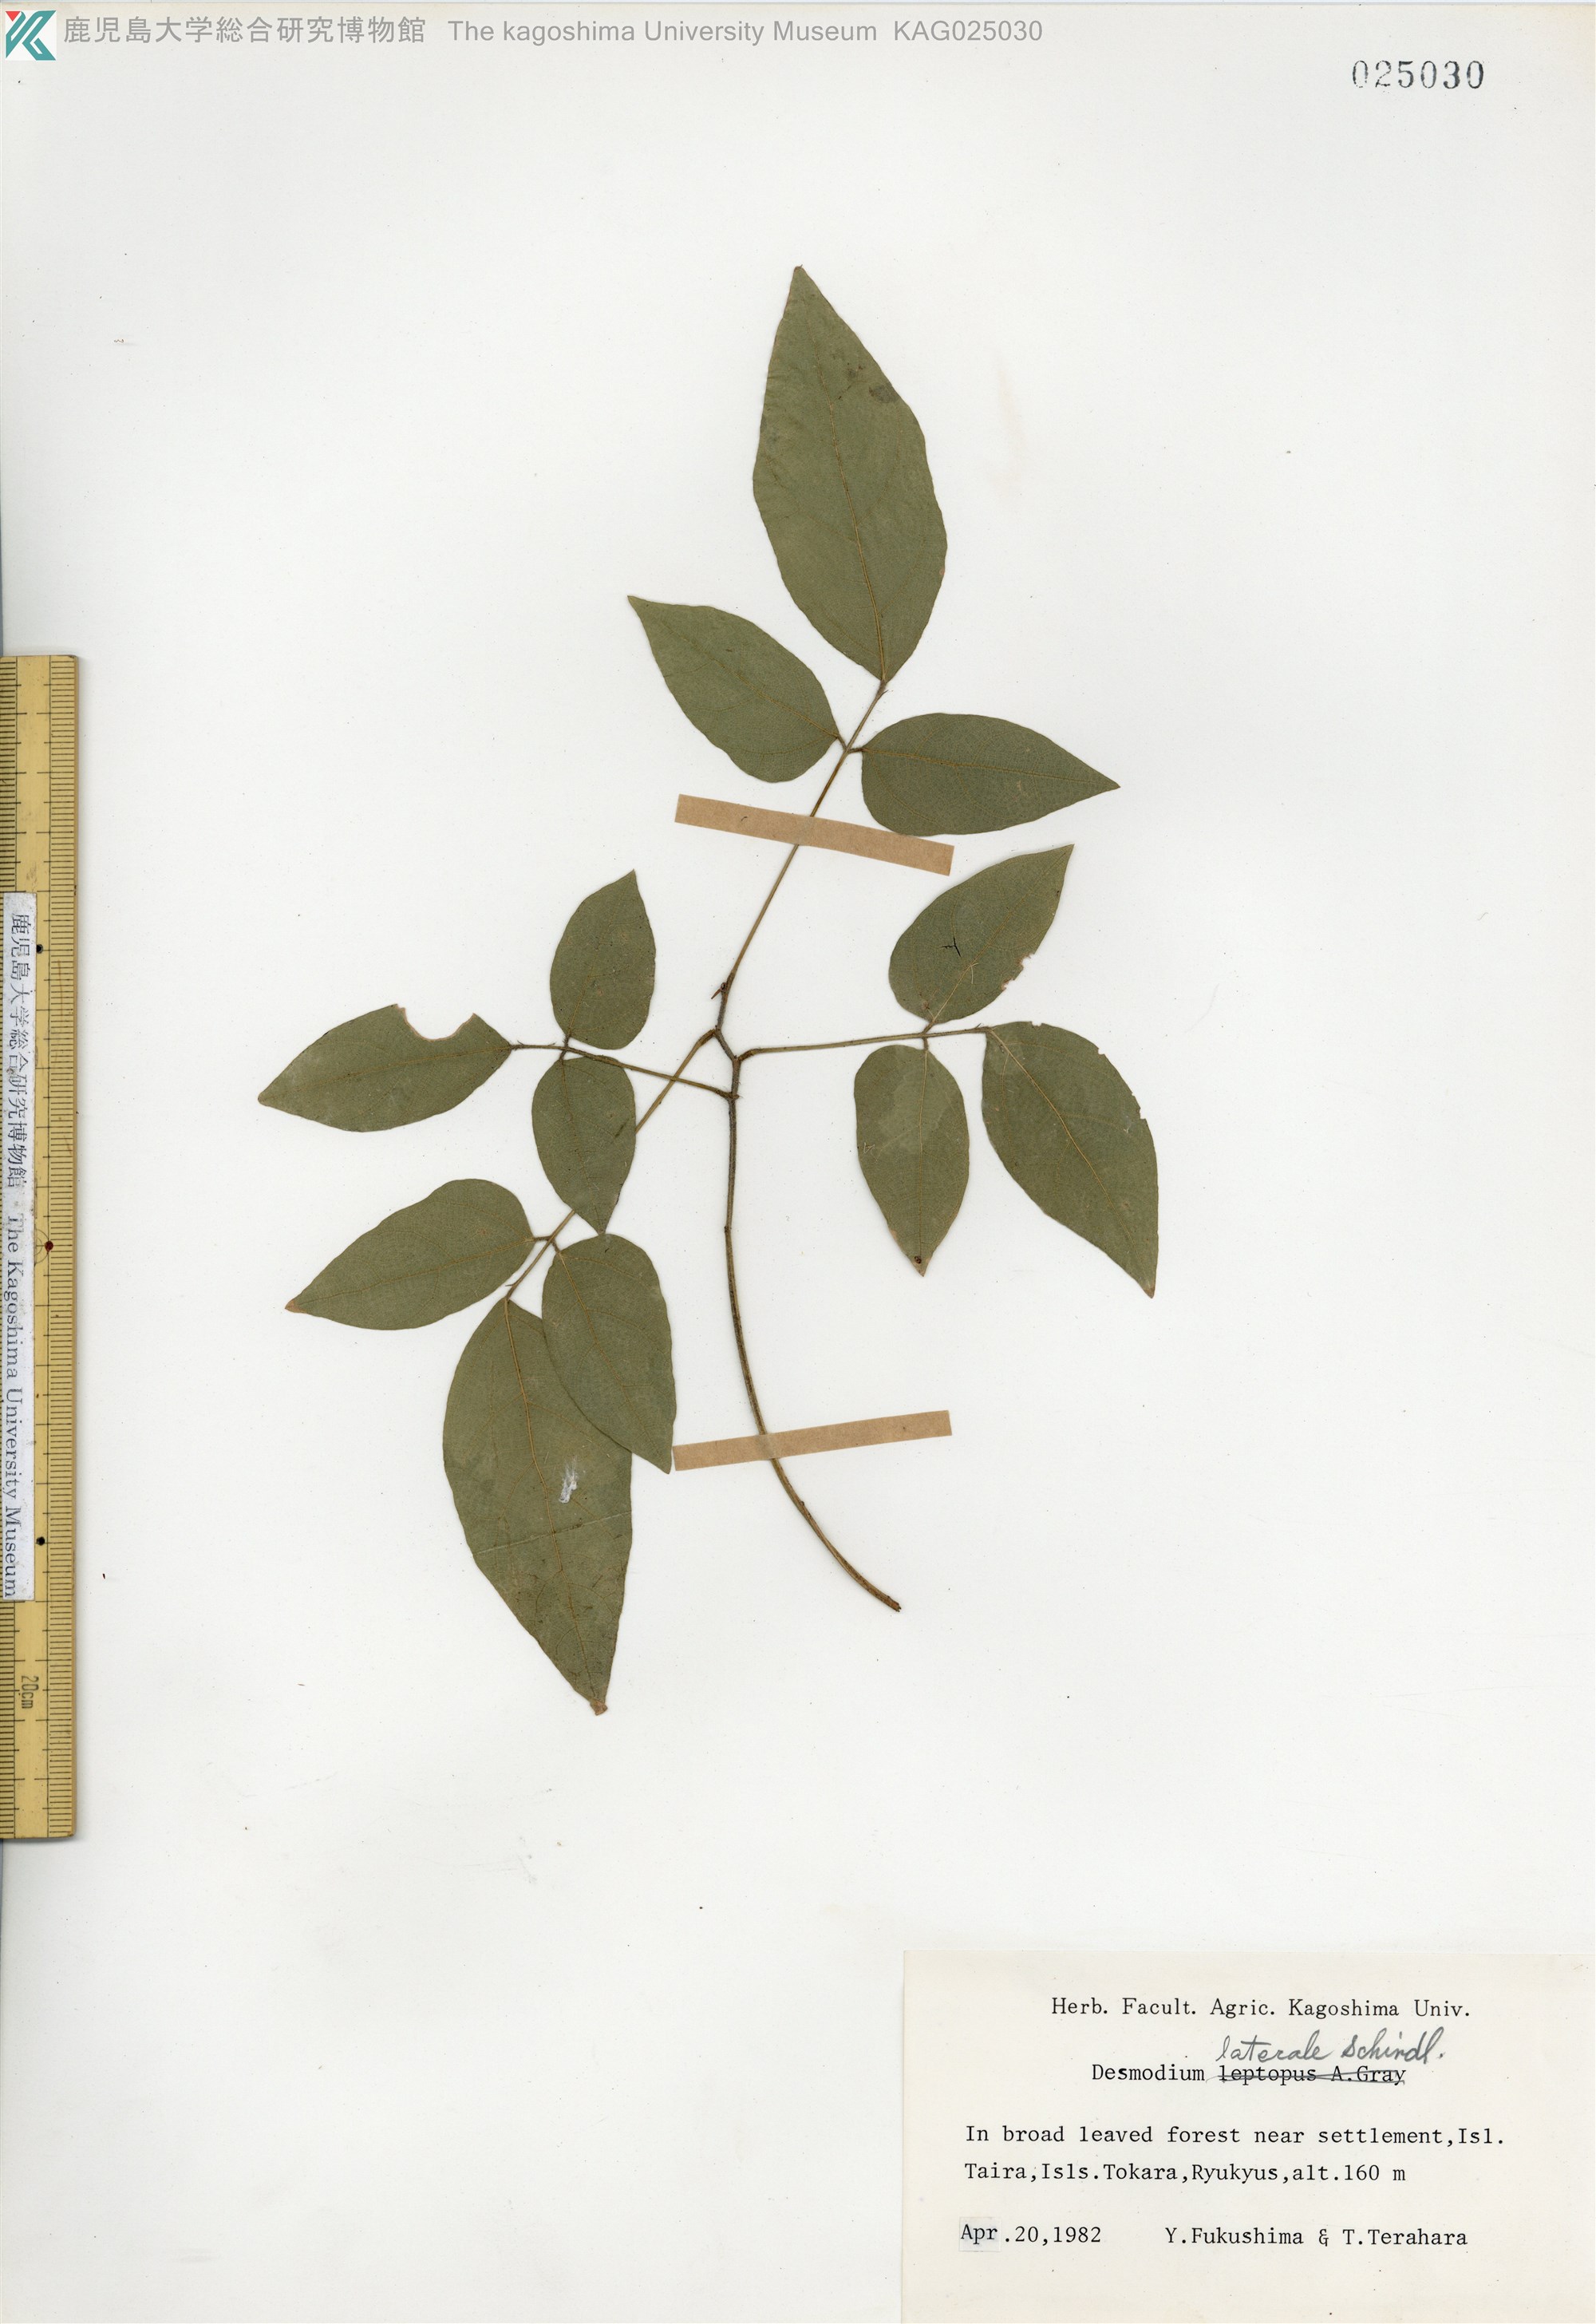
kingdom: Plantae
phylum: Tracheophyta
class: Magnoliopsida
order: Fabales
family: Fabaceae
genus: Hylodesmum
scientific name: Hylodesmum laterale
